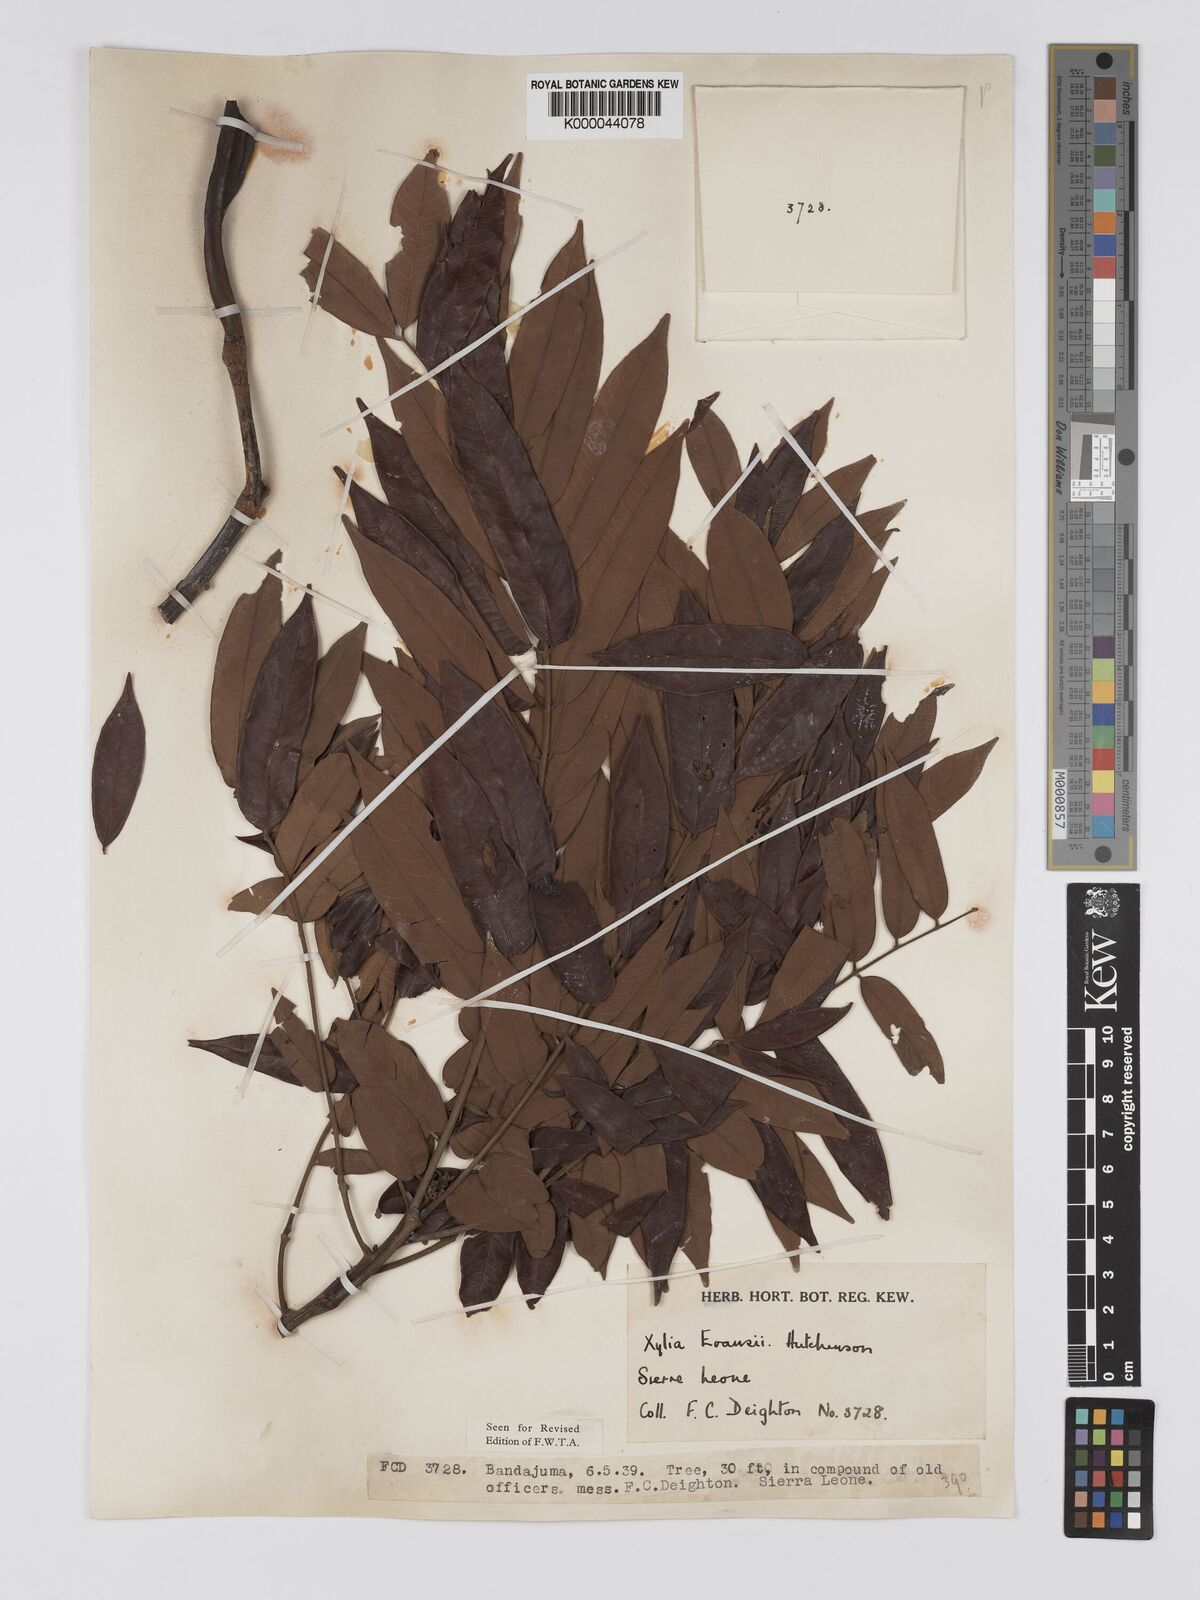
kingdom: Plantae
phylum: Tracheophyta
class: Magnoliopsida
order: Fabales
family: Fabaceae
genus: Xylia
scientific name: Xylia evansii
